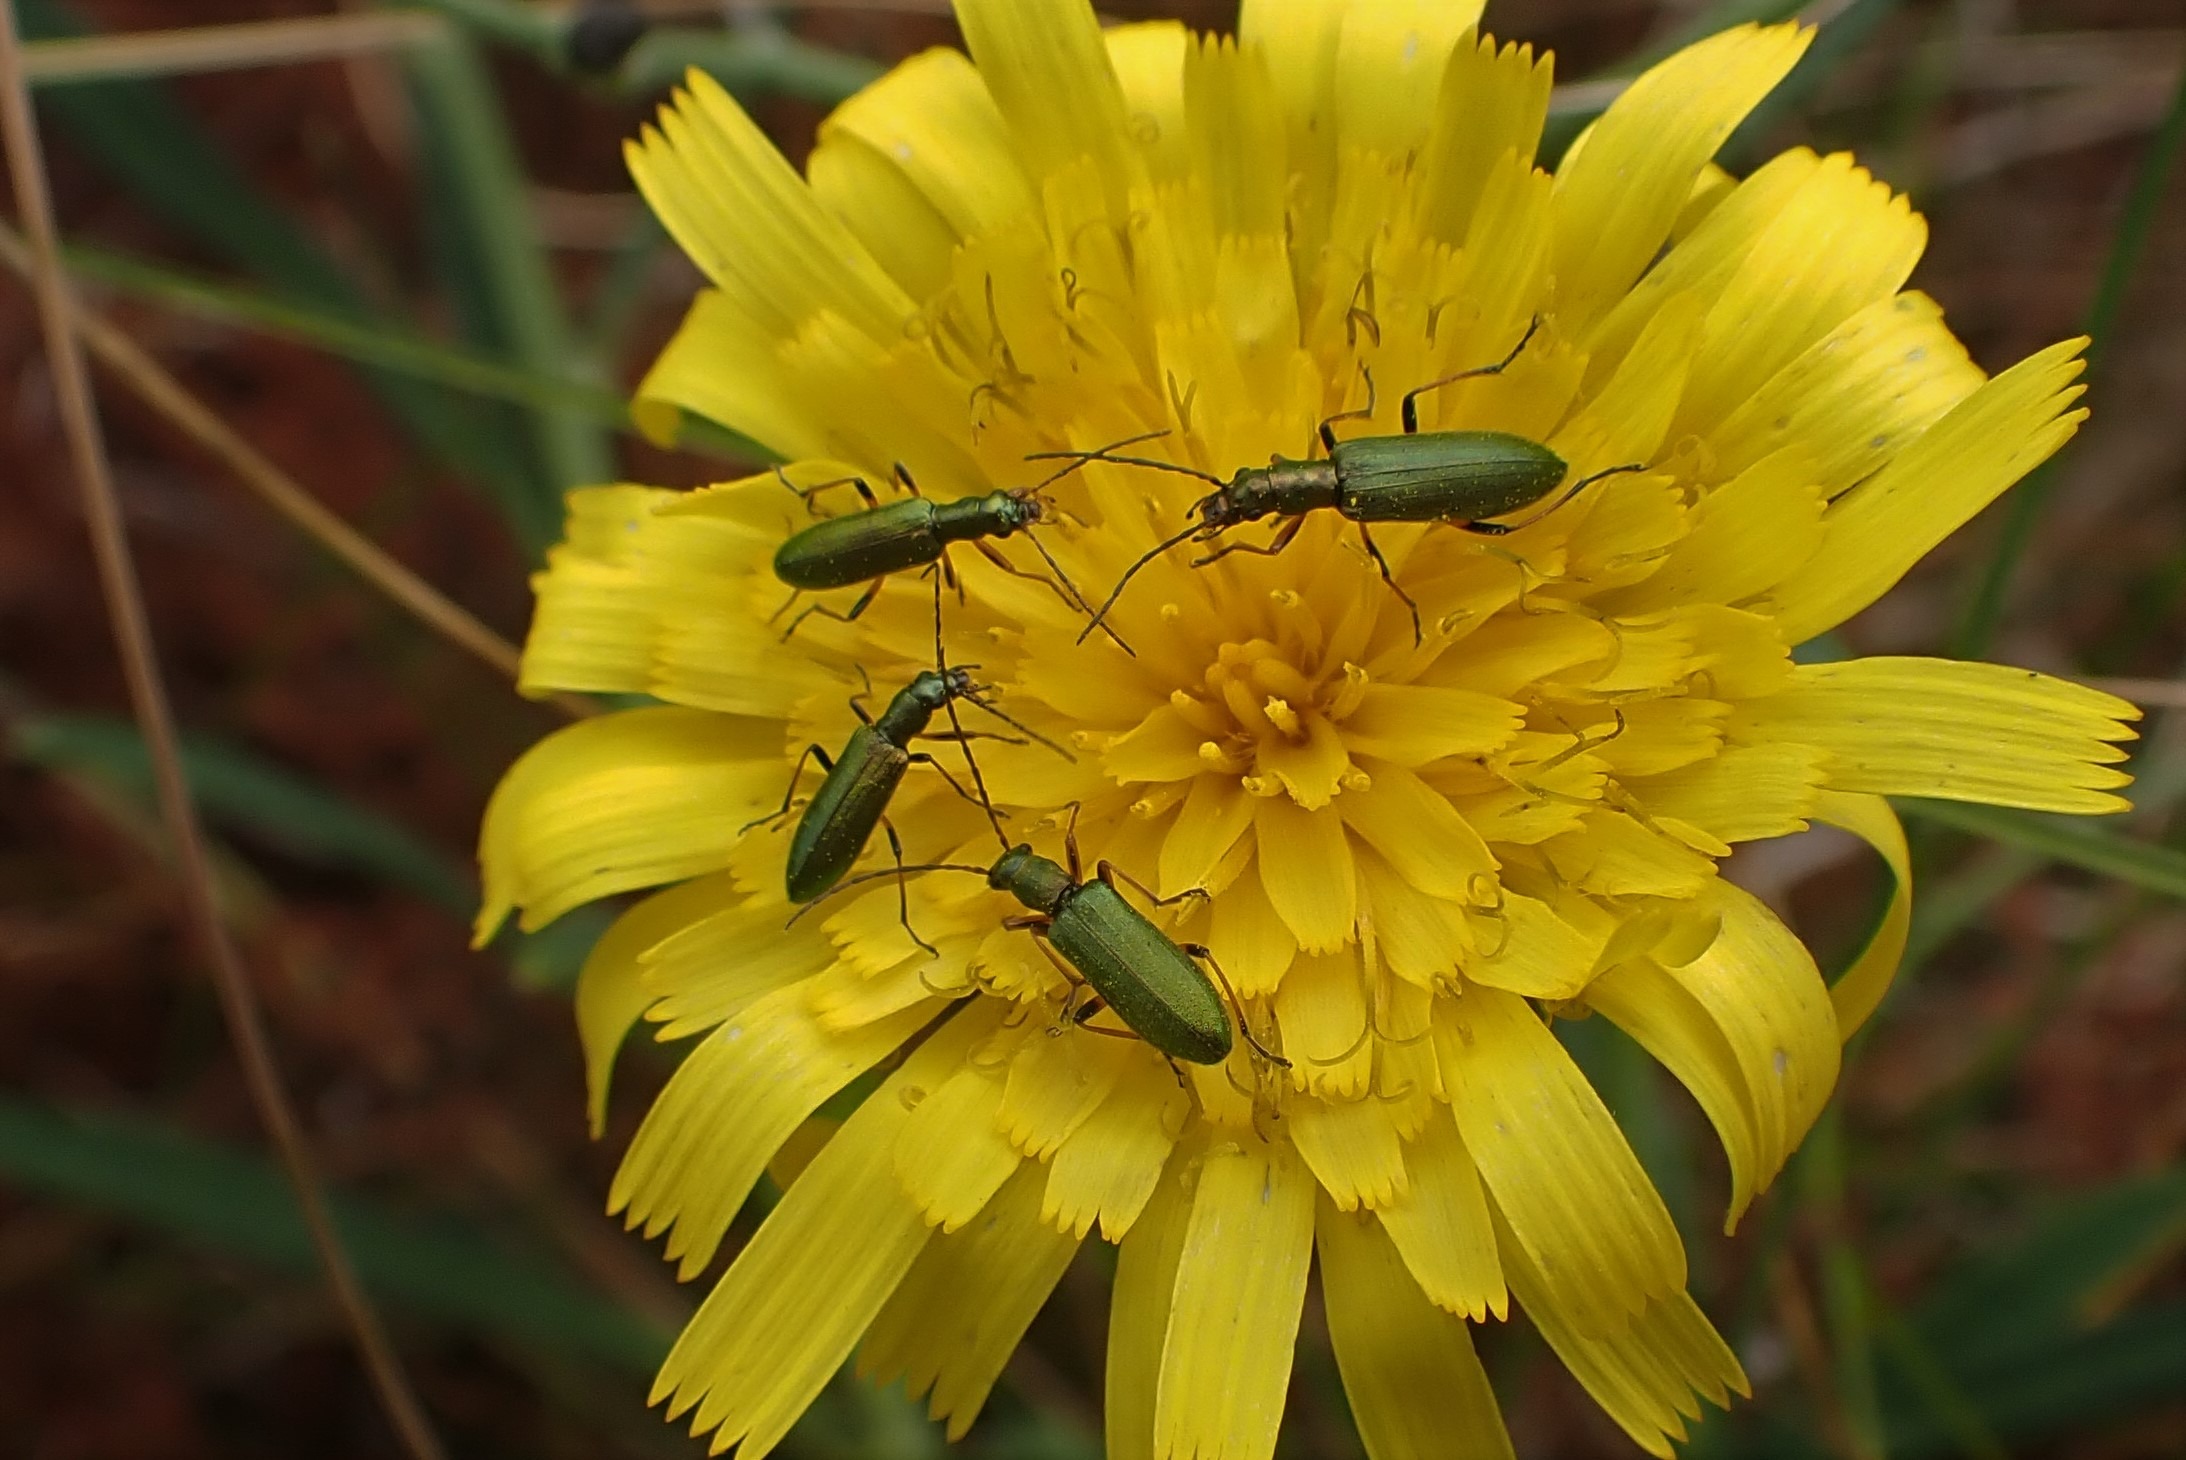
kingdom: Animalia
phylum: Arthropoda
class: Insecta
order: Coleoptera
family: Oedemeridae
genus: Chrysanthia
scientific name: Chrysanthia geniculata
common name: Grøn solbille
